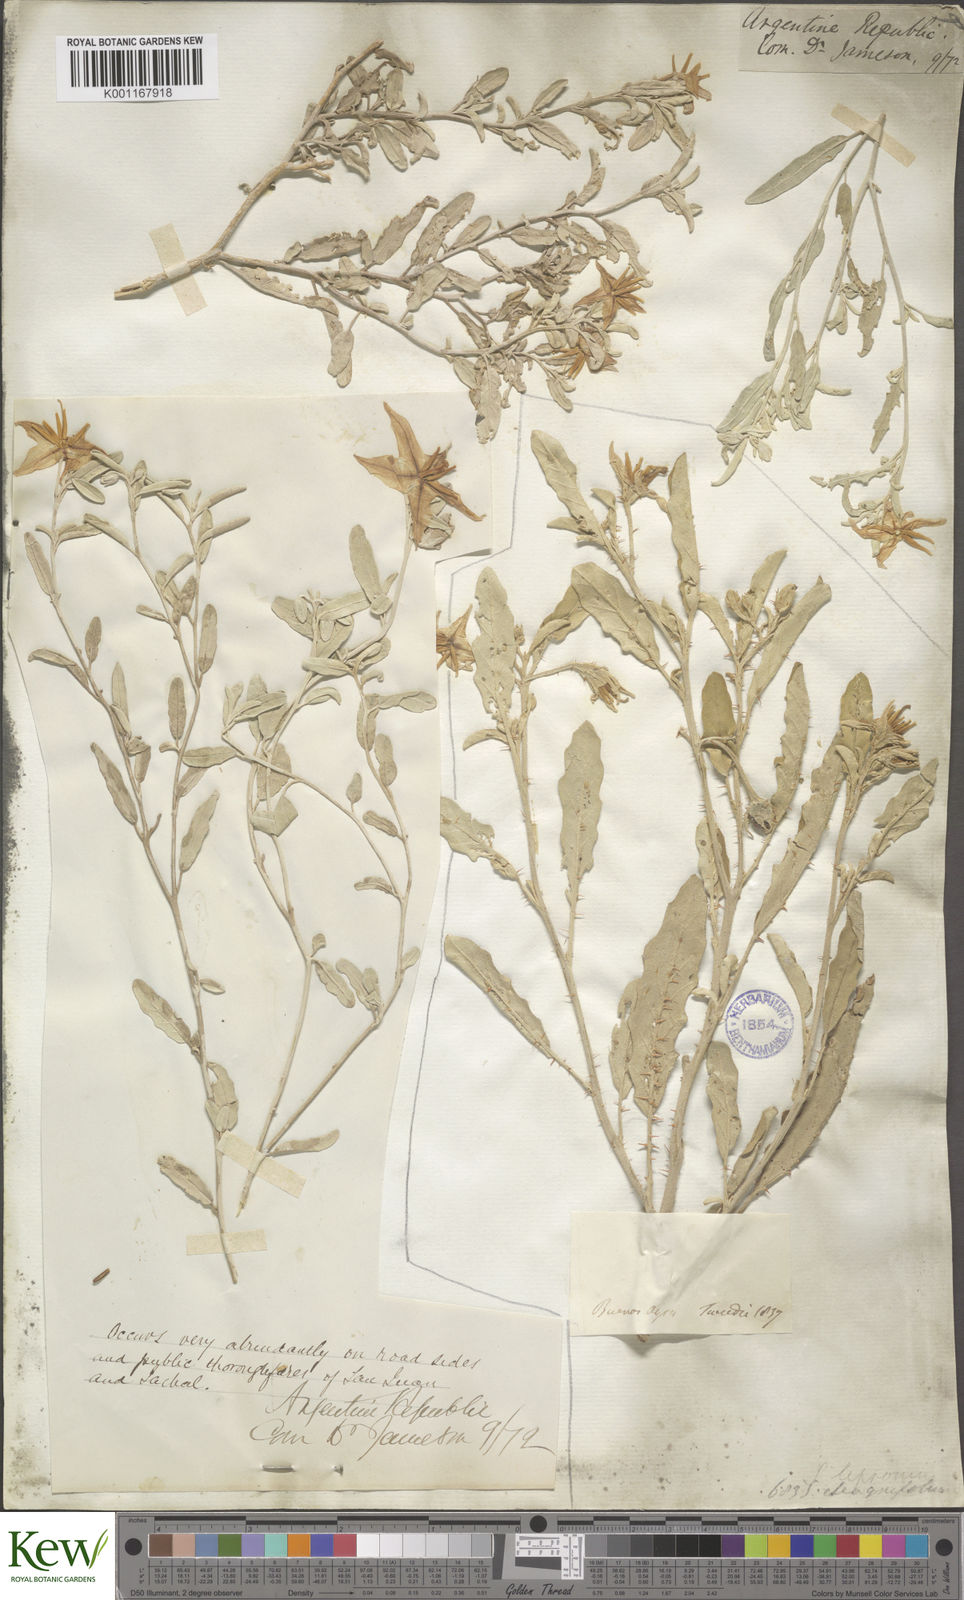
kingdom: Plantae
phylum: Tracheophyta
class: Magnoliopsida
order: Solanales
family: Solanaceae
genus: Solanum
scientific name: Solanum elaeagnifolium
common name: Silverleaf nightshade
